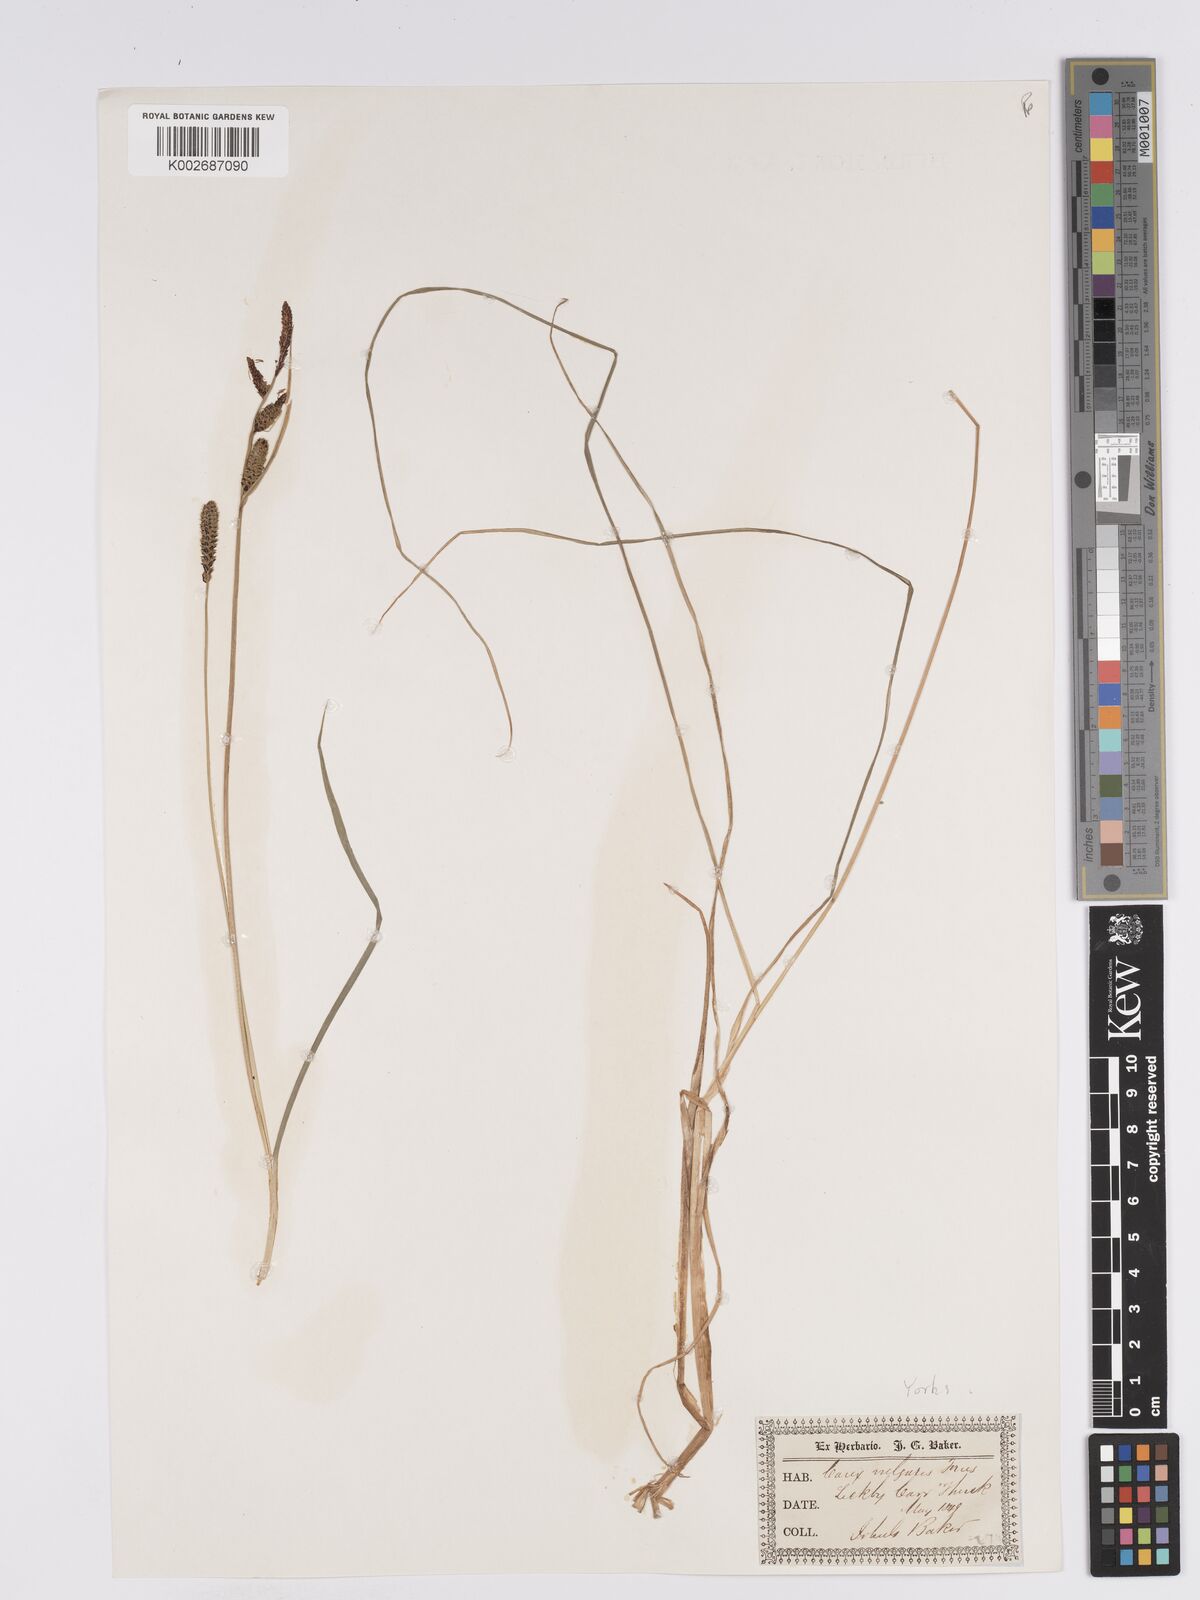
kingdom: Plantae
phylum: Tracheophyta
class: Liliopsida
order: Poales
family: Cyperaceae
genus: Carex
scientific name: Carex nigra
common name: Common sedge
